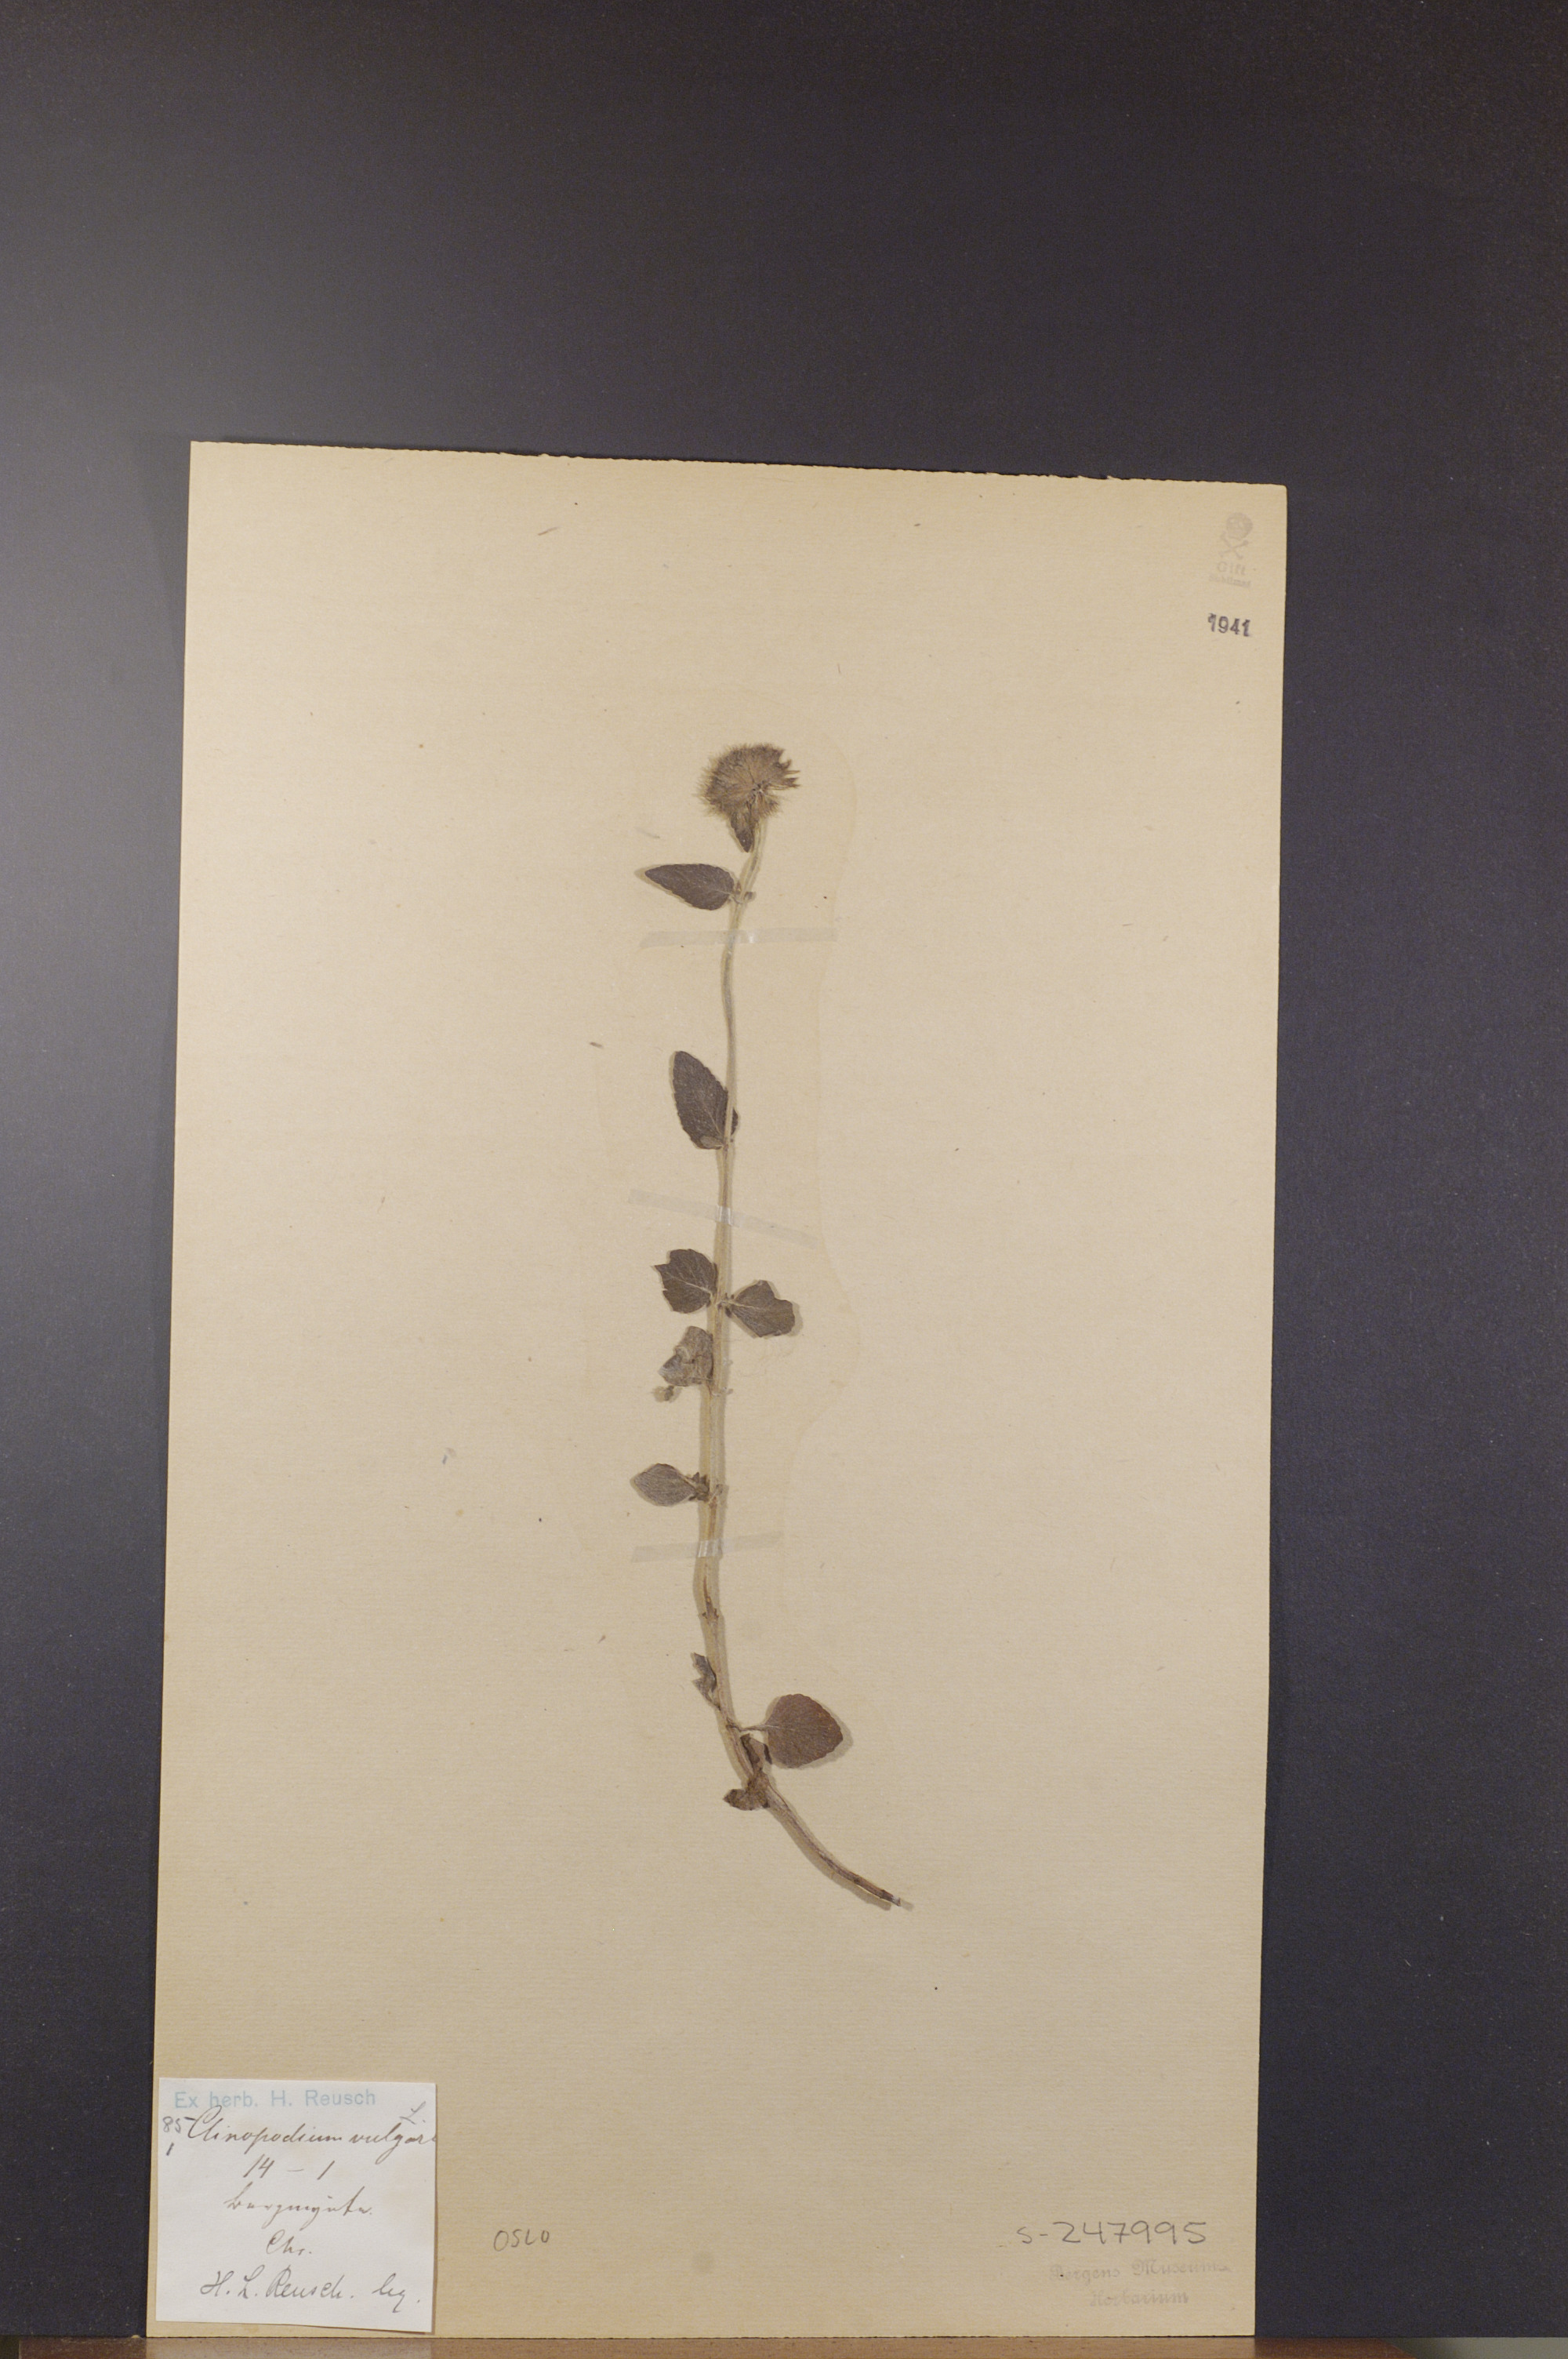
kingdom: Plantae
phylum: Tracheophyta
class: Magnoliopsida
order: Lamiales
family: Lamiaceae
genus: Clinopodium
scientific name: Clinopodium vulgare
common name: Wild basil
